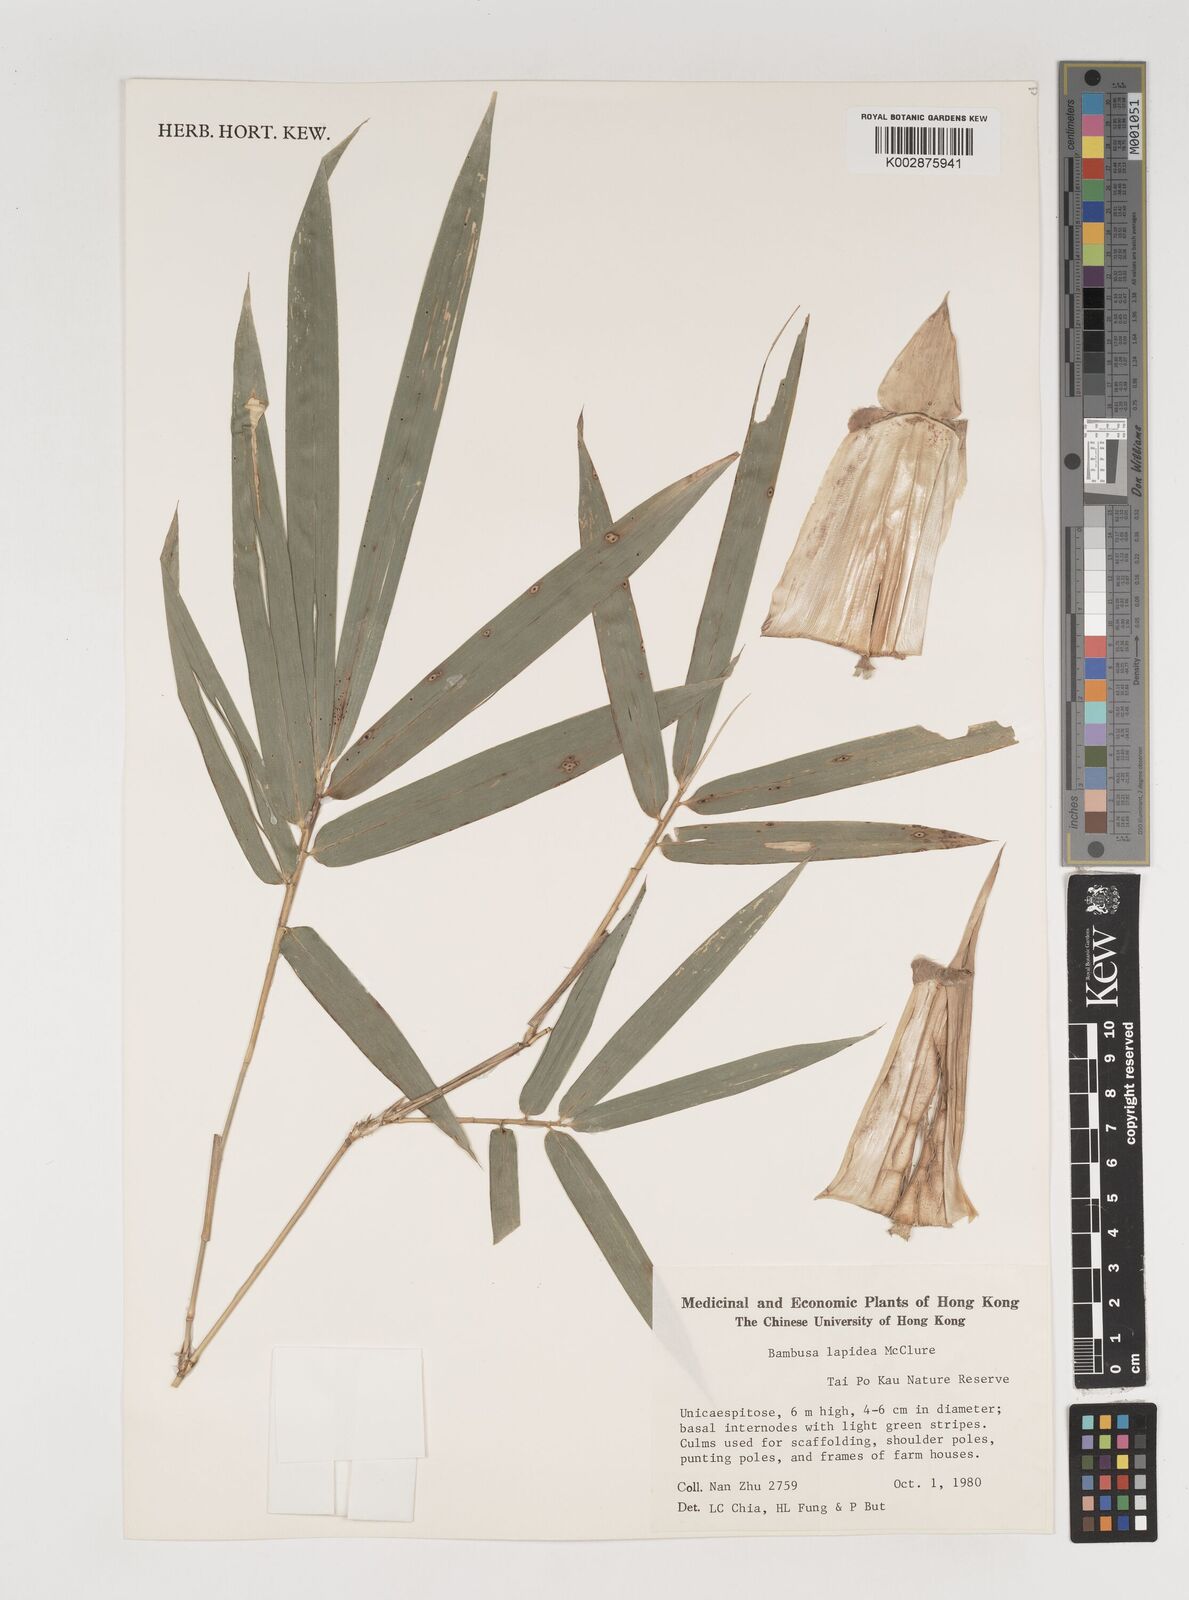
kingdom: Plantae
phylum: Tracheophyta
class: Liliopsida
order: Poales
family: Poaceae
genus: Bambusa
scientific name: Bambusa lapidea
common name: Horsehoof bamboo
